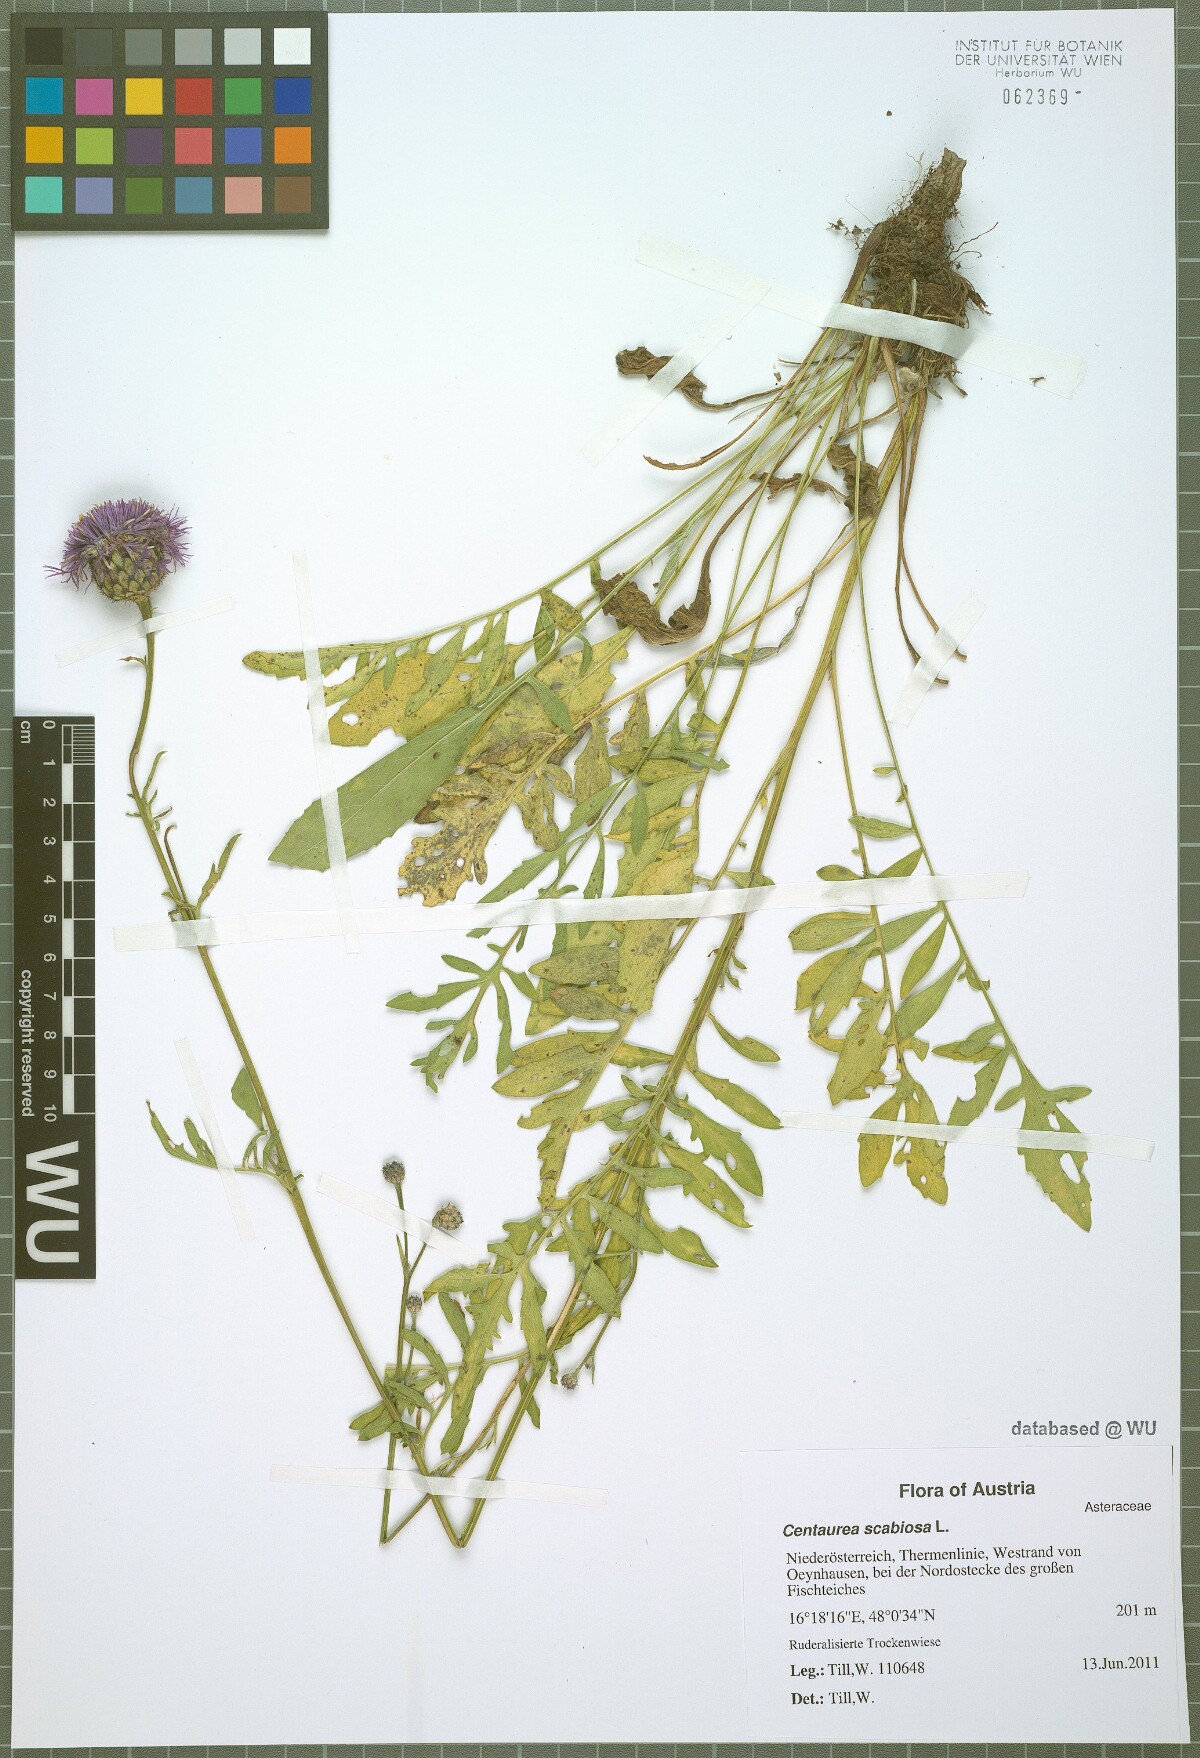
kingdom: Plantae
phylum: Tracheophyta
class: Magnoliopsida
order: Asterales
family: Asteraceae
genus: Centaurea
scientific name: Centaurea scabiosa
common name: Greater knapweed
